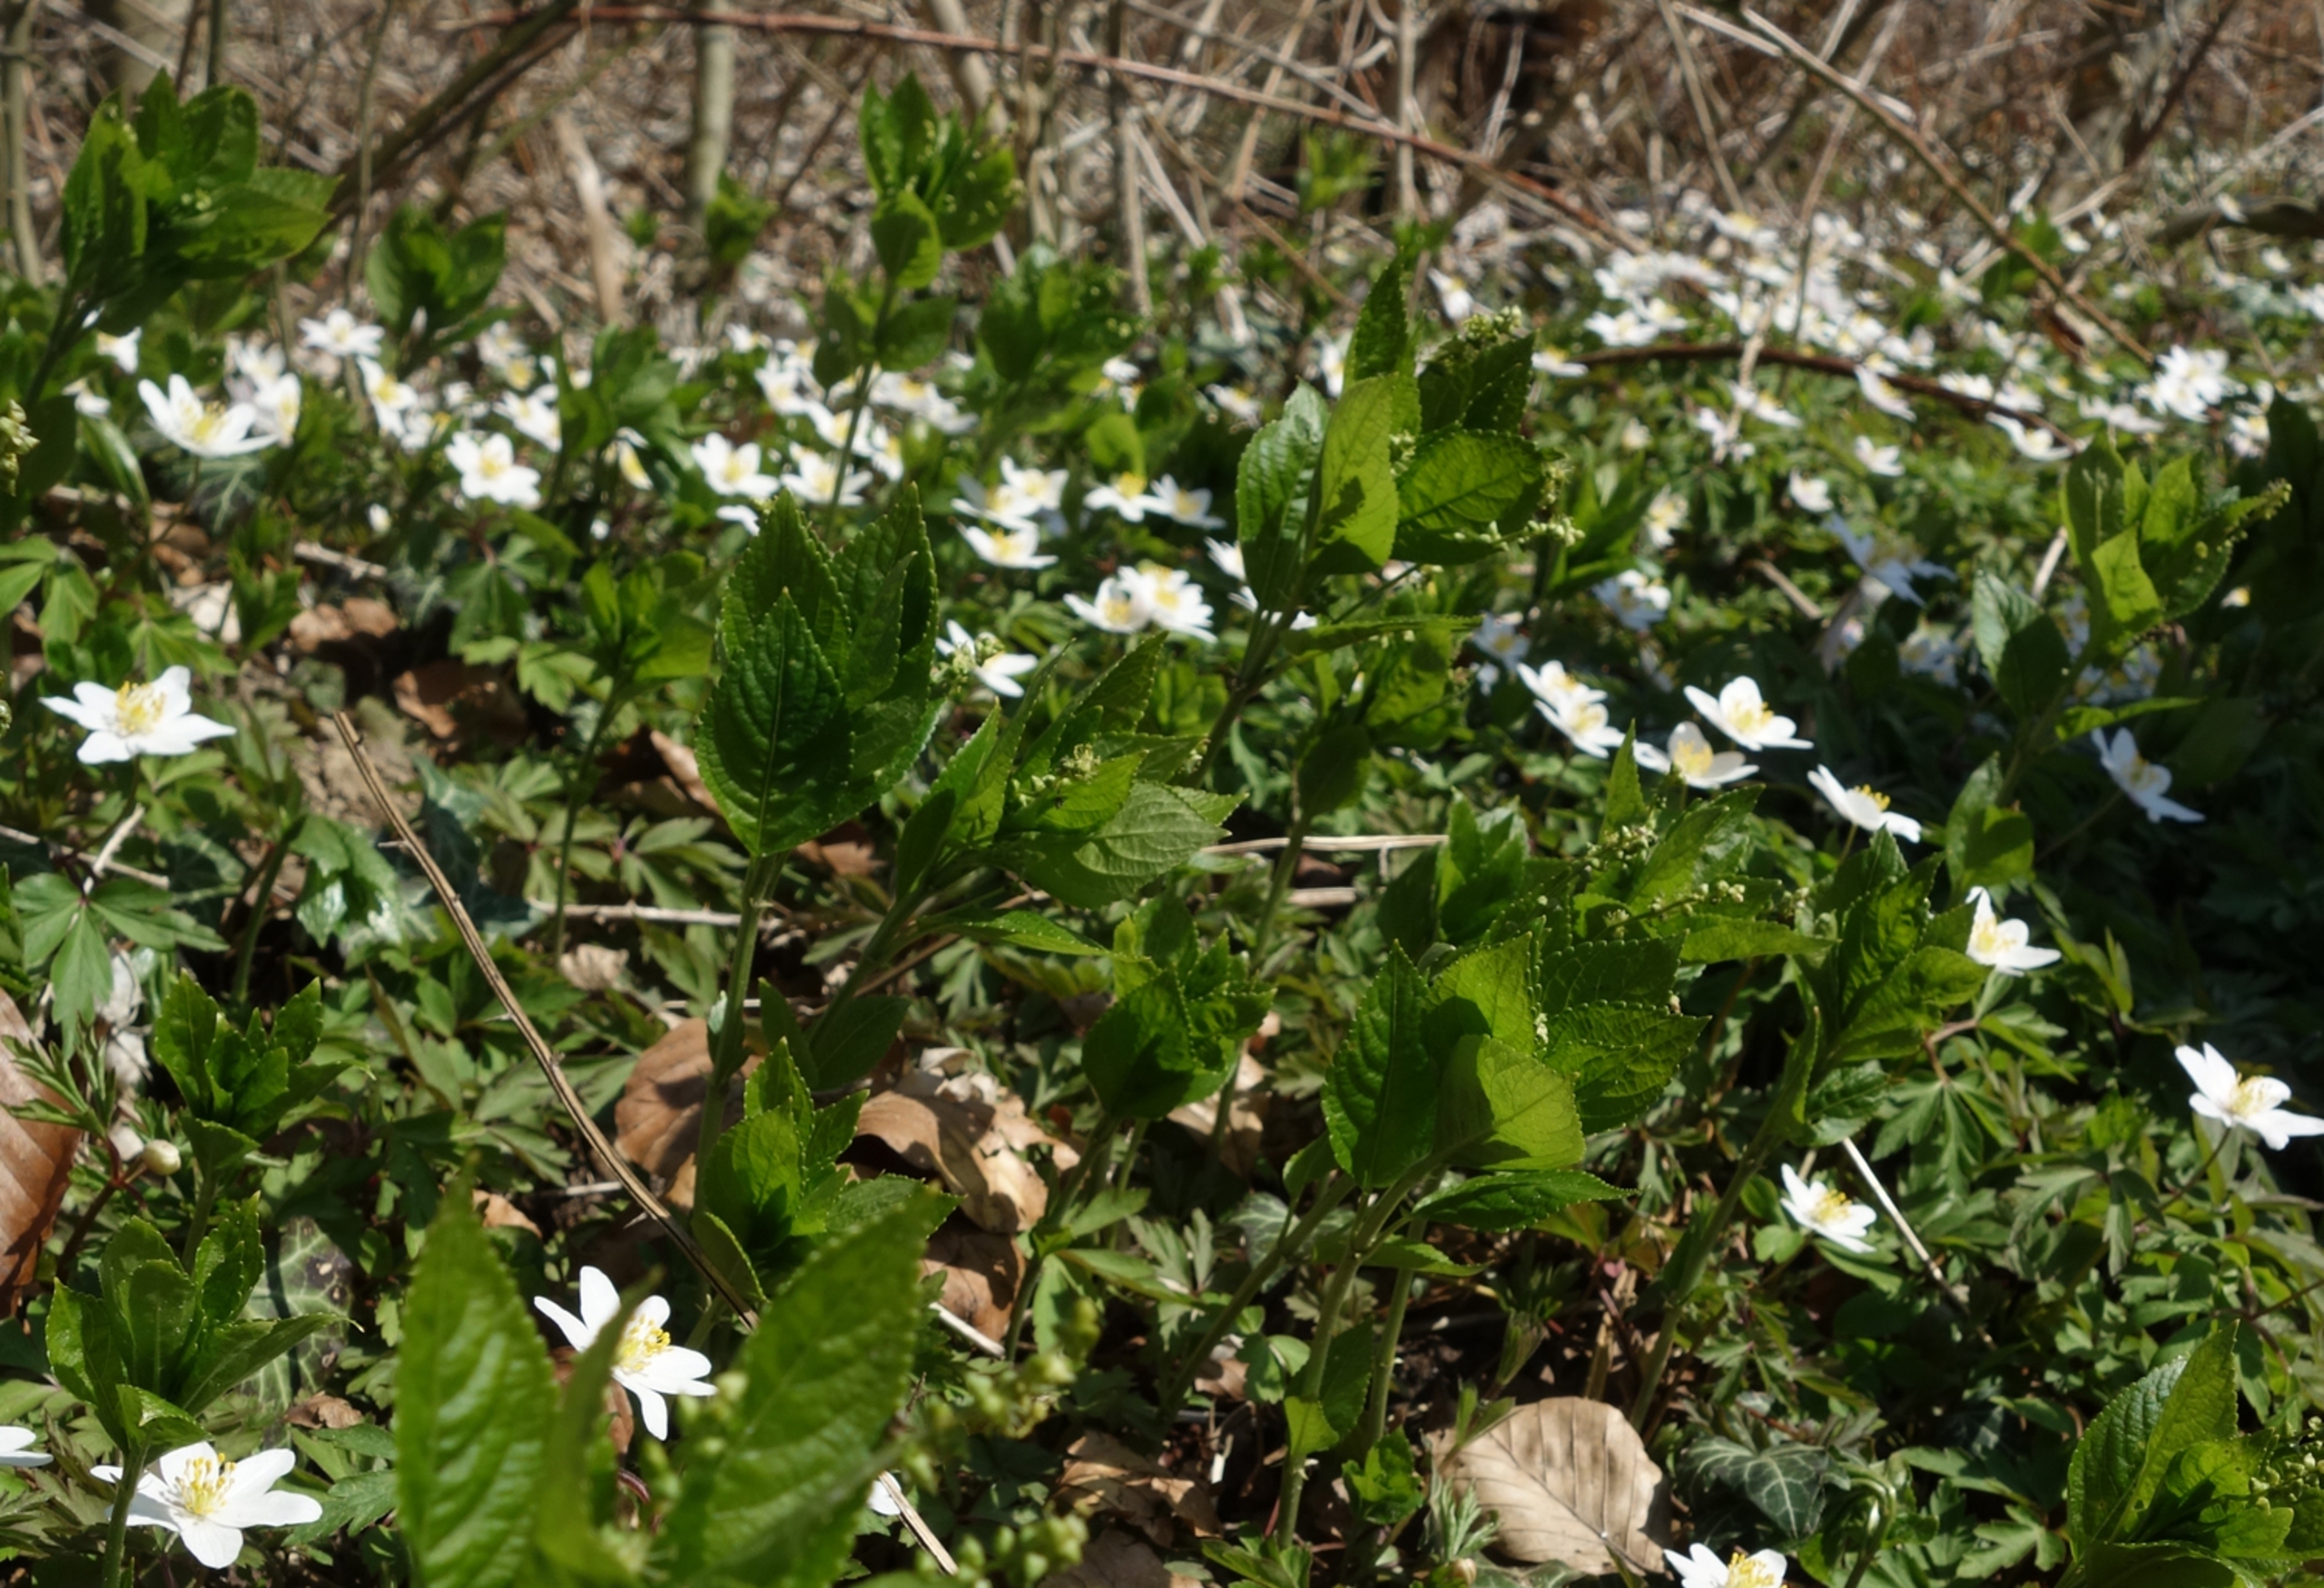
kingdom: Plantae
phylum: Tracheophyta
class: Magnoliopsida
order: Malpighiales
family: Euphorbiaceae
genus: Mercurialis
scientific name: Mercurialis perennis
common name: Almindelig bingelurt
